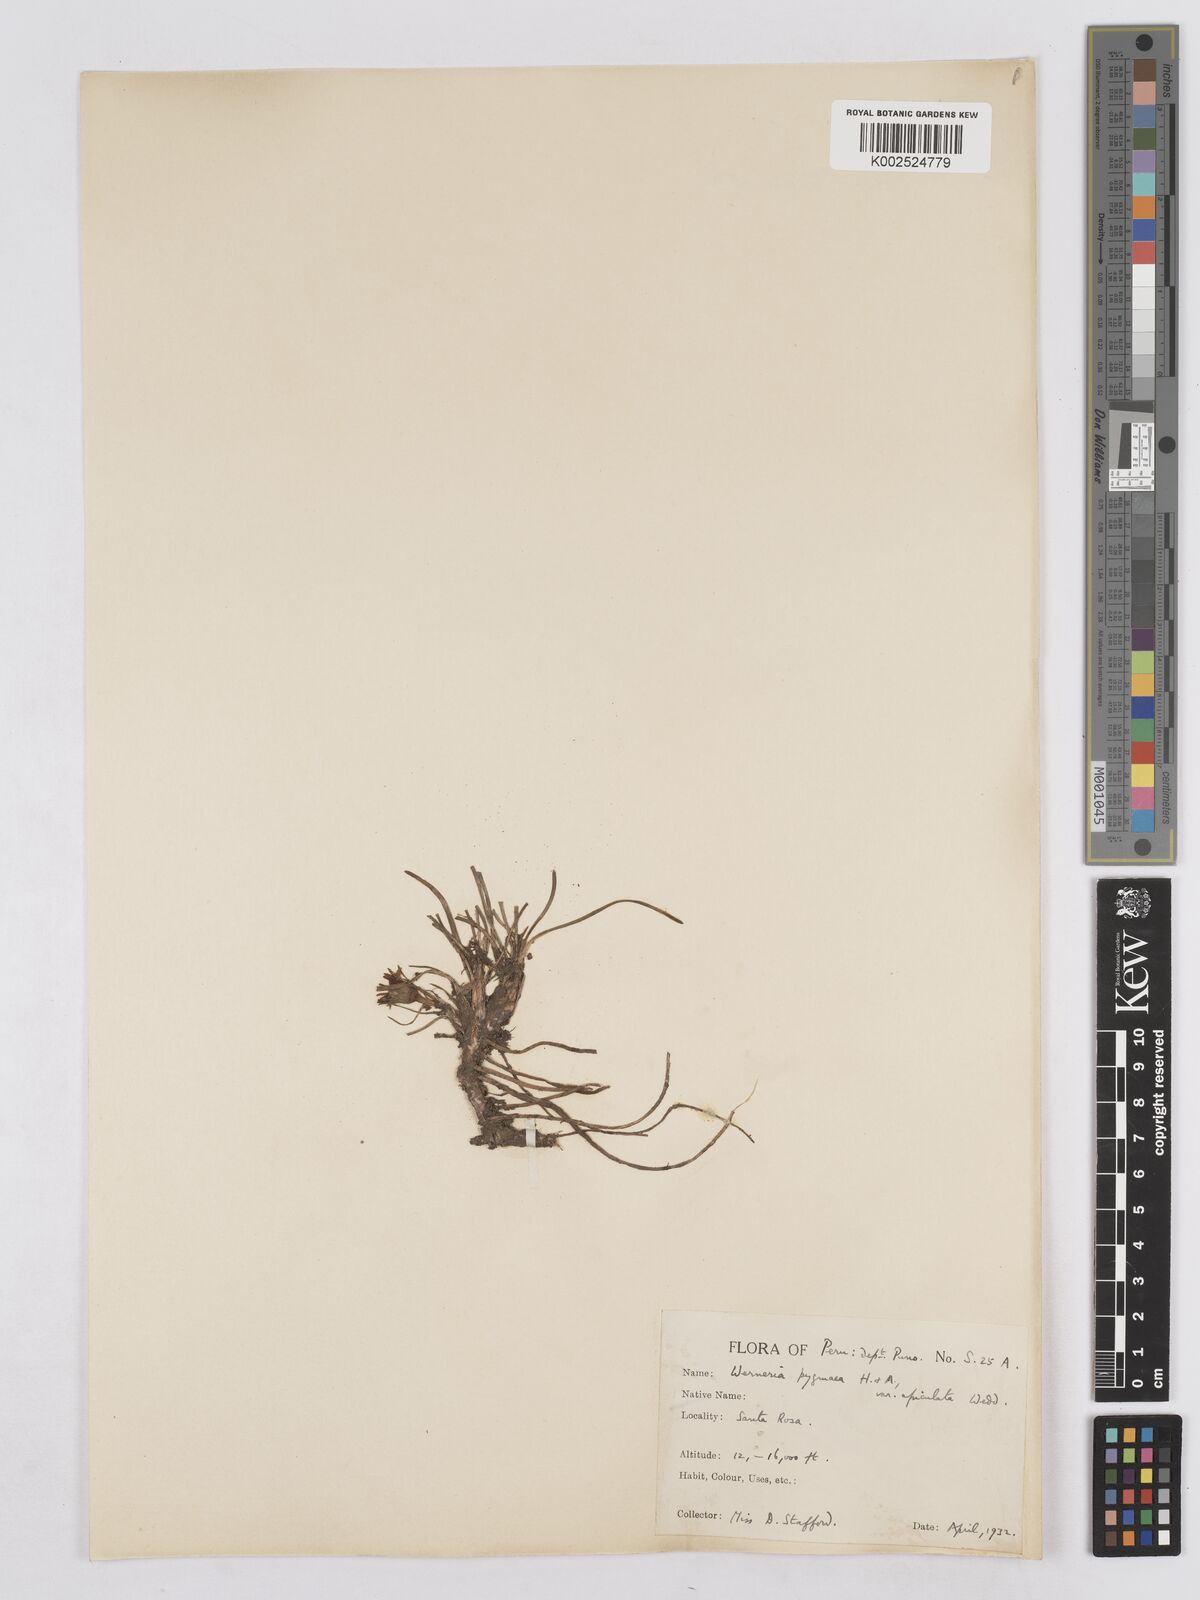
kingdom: Plantae
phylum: Tracheophyta
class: Magnoliopsida
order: Asterales
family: Asteraceae
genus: Rockhausenia
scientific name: Rockhausenia apiculata
